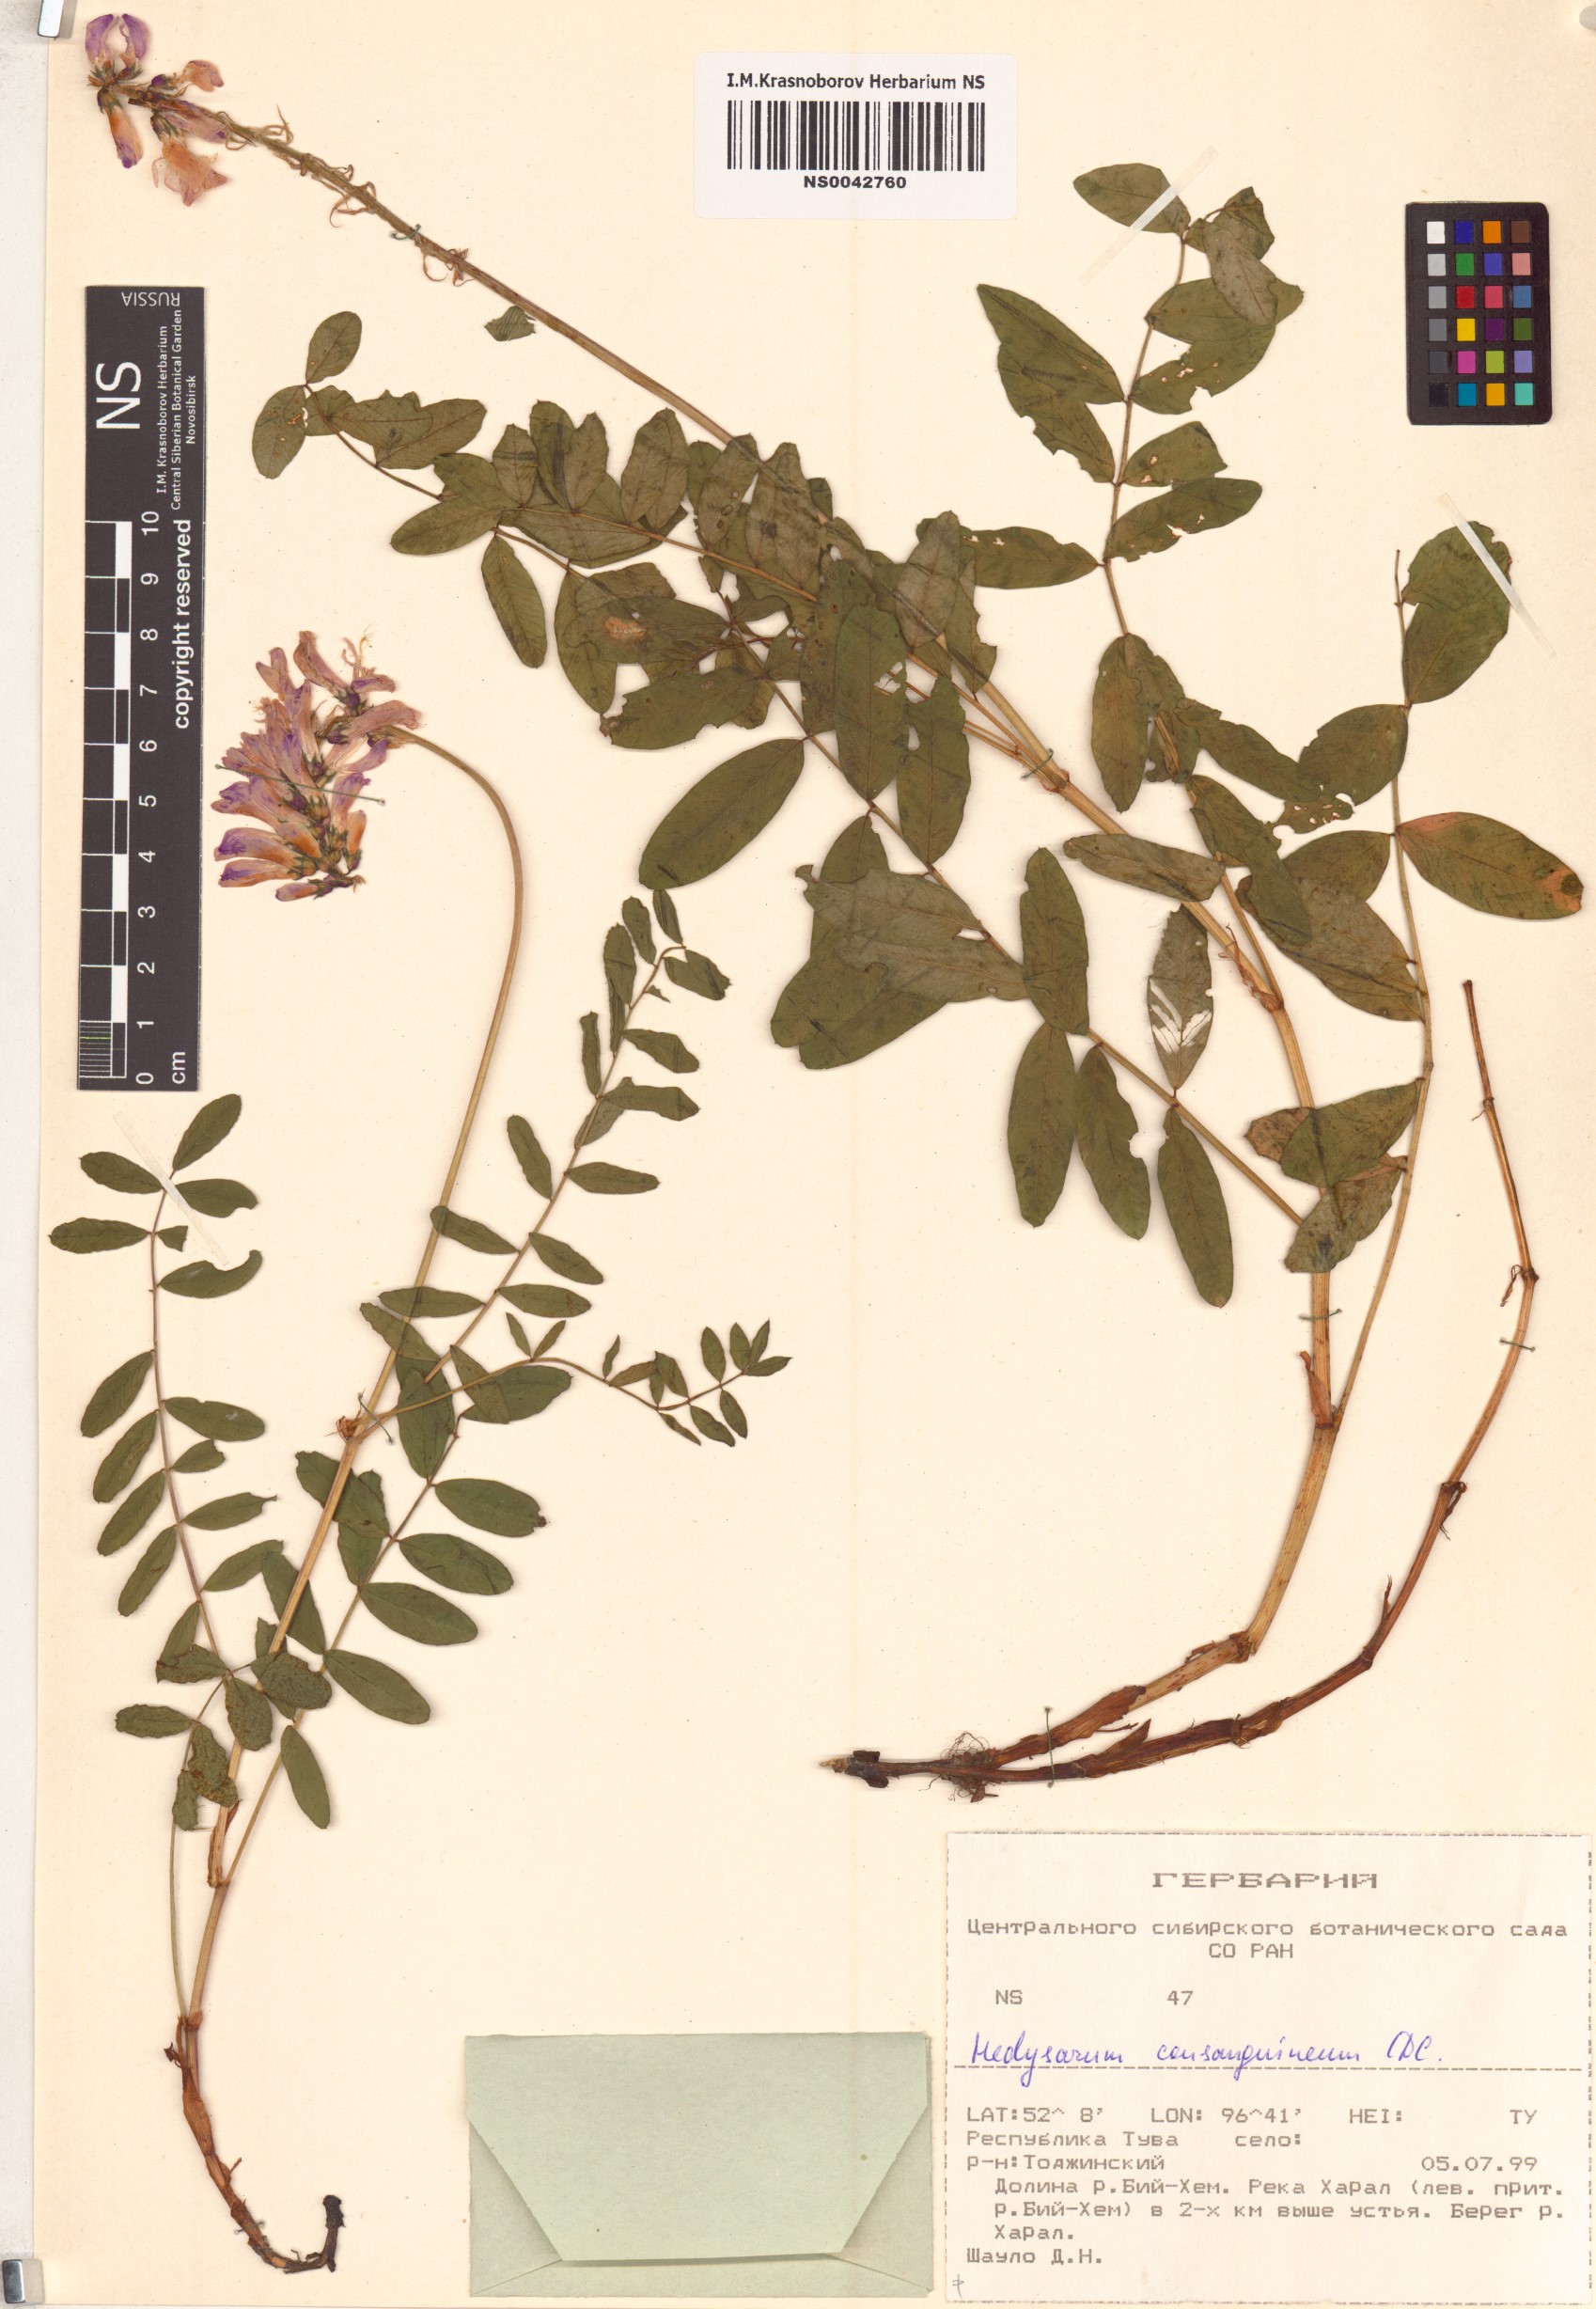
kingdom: Plantae
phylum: Tracheophyta
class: Magnoliopsida
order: Fabales
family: Fabaceae
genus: Hedysarum
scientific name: Hedysarum consanguineum
